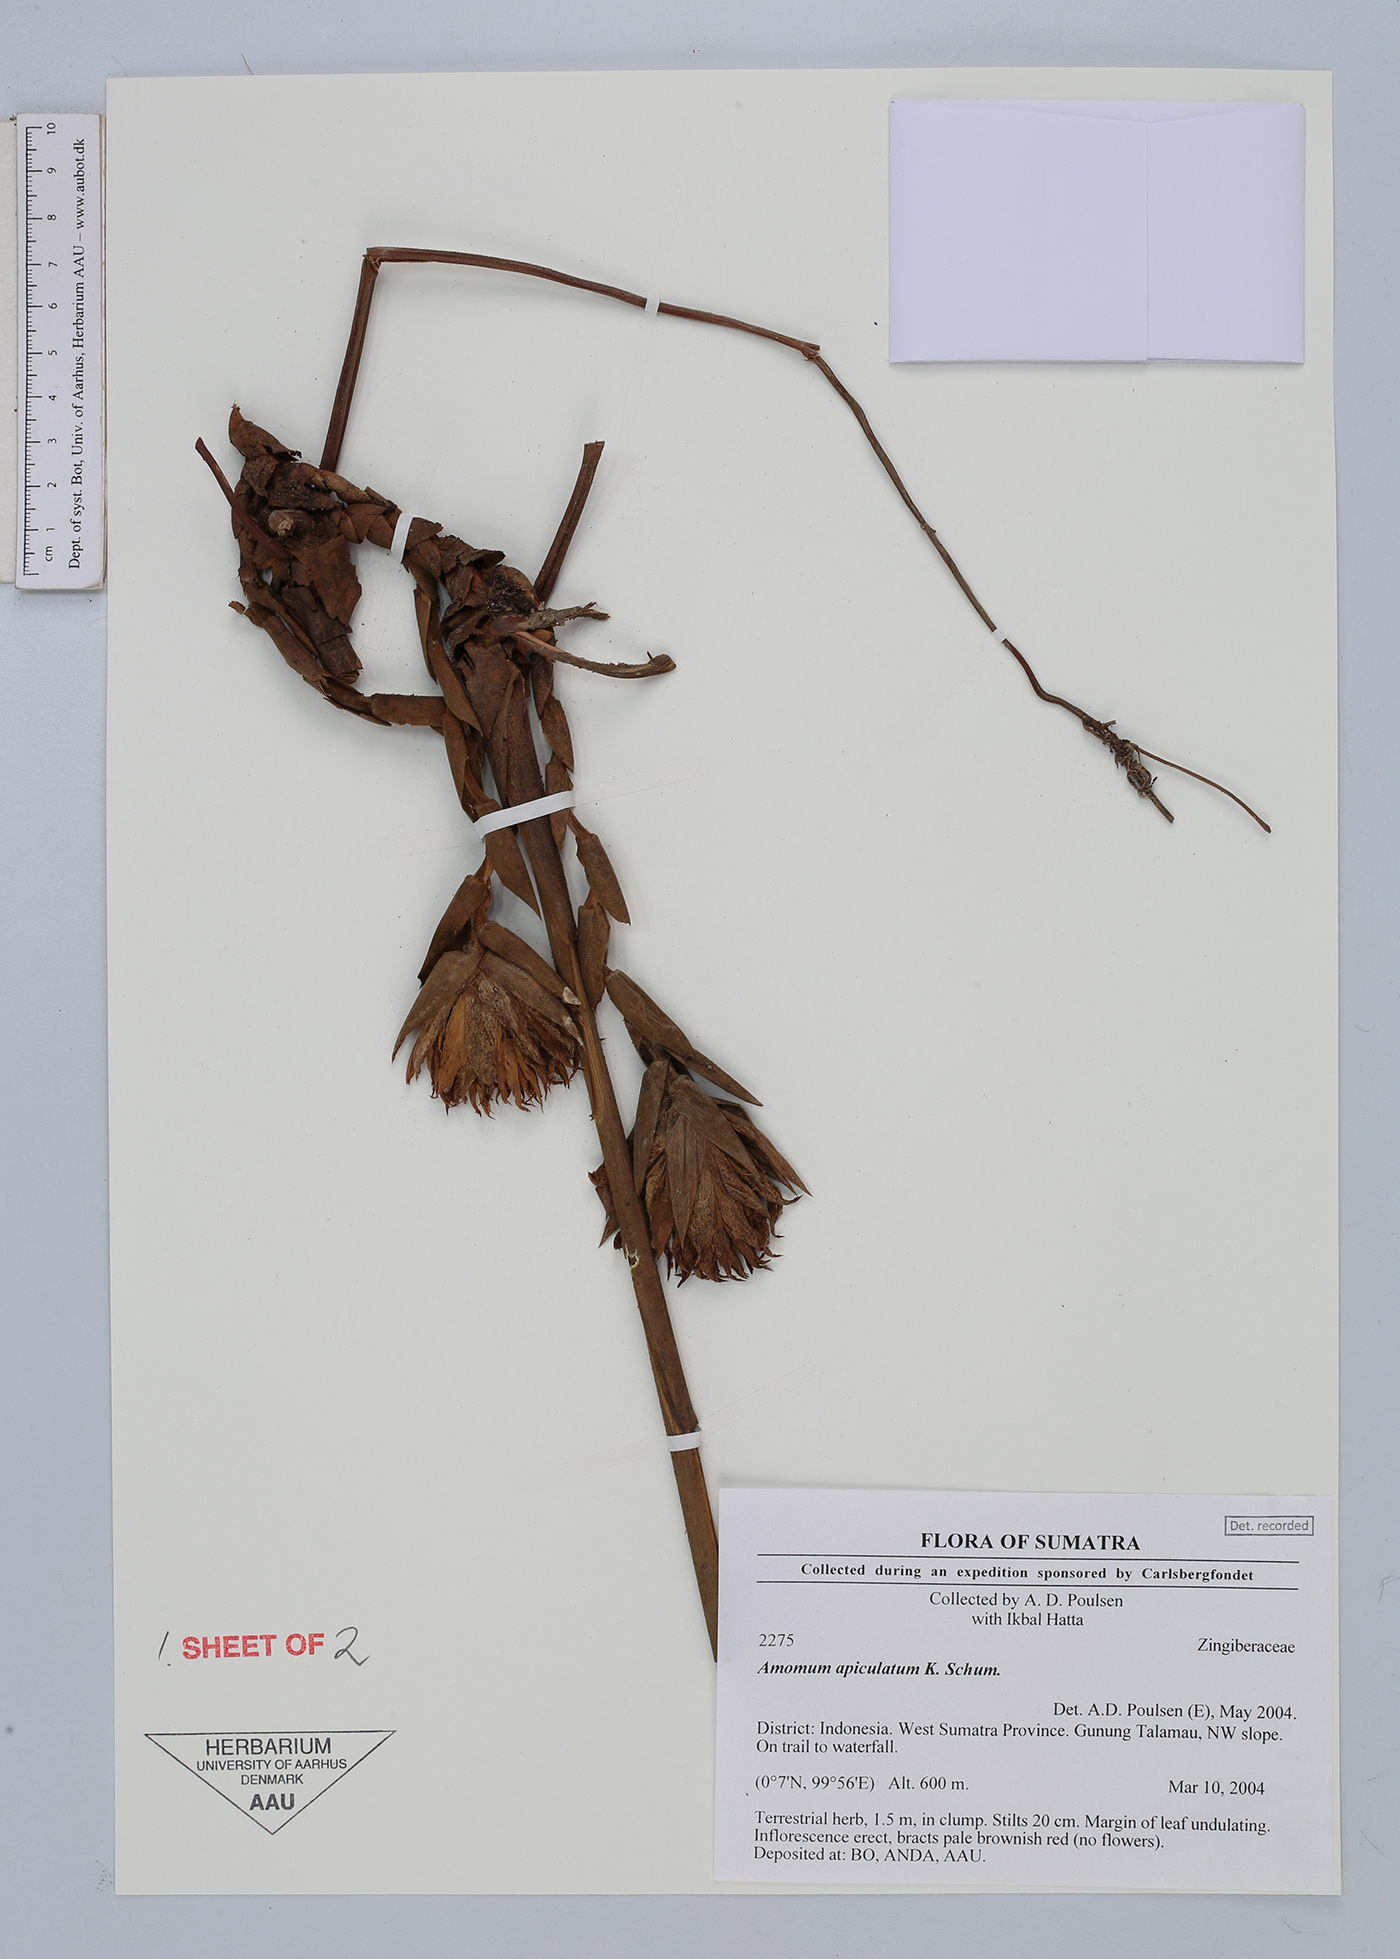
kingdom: Plantae
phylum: Tracheophyta
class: Liliopsida
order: Zingiberales
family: Zingiberaceae
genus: Amomum
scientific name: Amomum apiculatum
